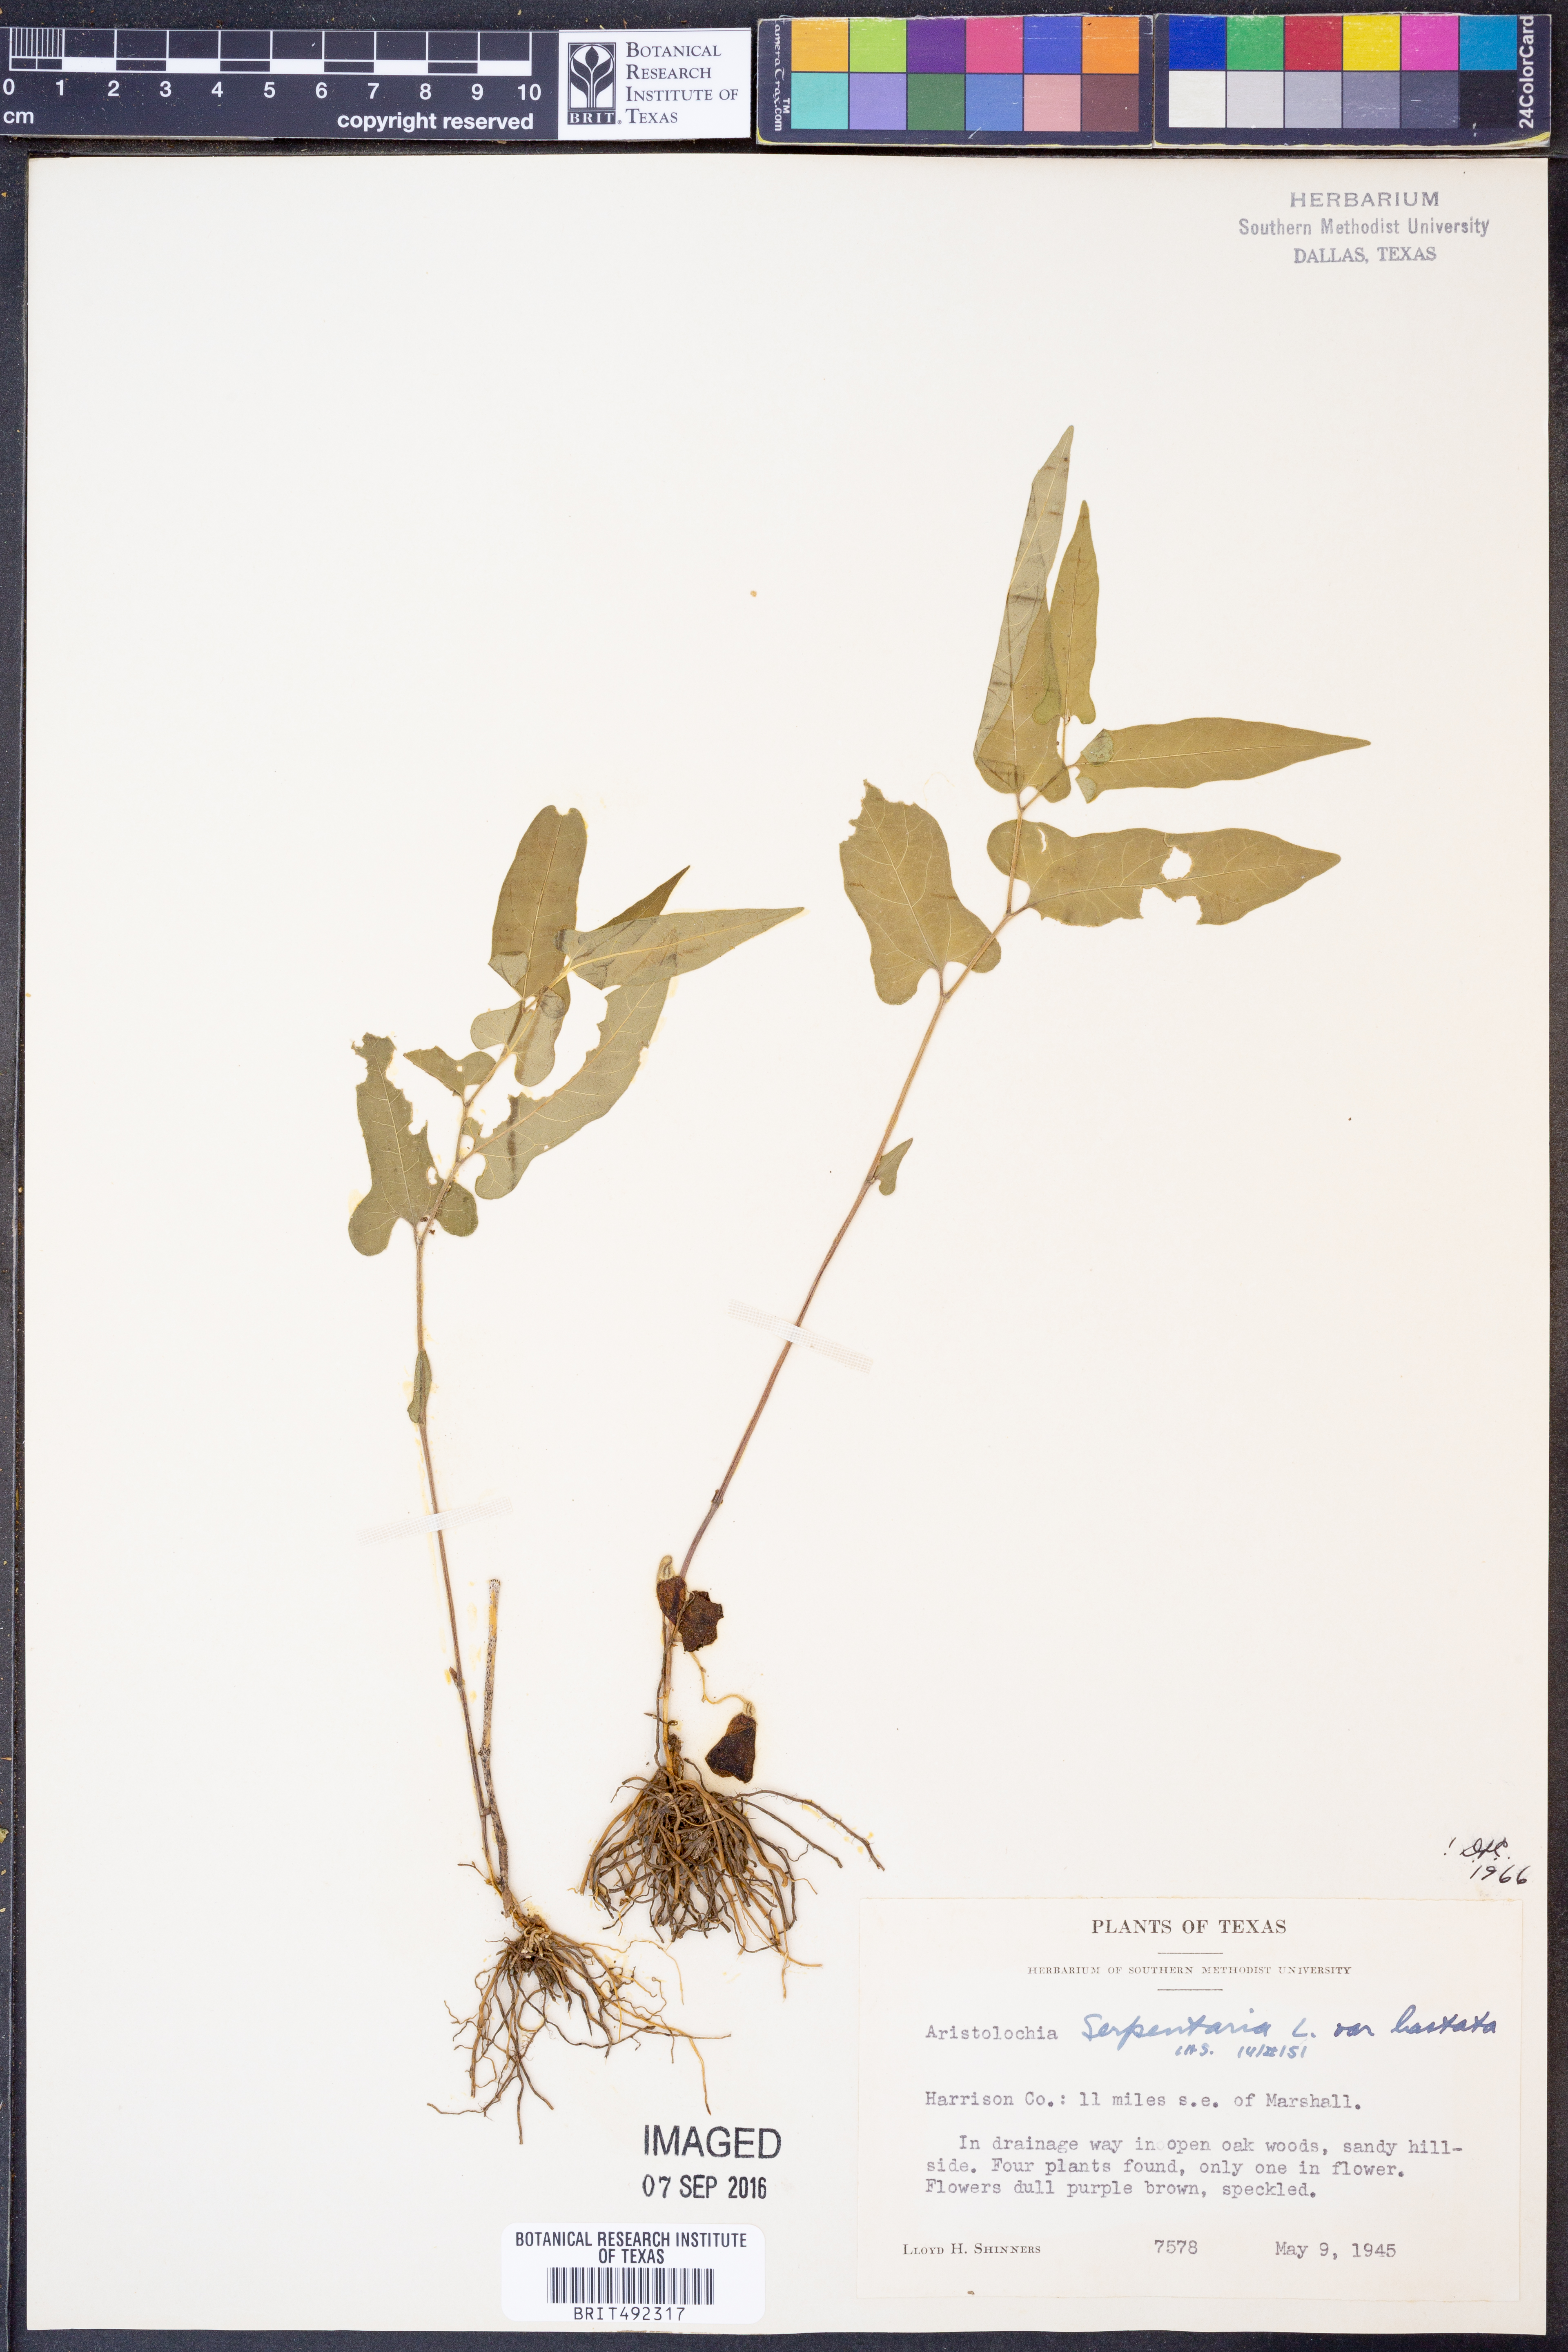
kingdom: Plantae
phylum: Tracheophyta
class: Magnoliopsida
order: Piperales
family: Aristolochiaceae
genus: Endodeca
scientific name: Endodeca serpentaria
